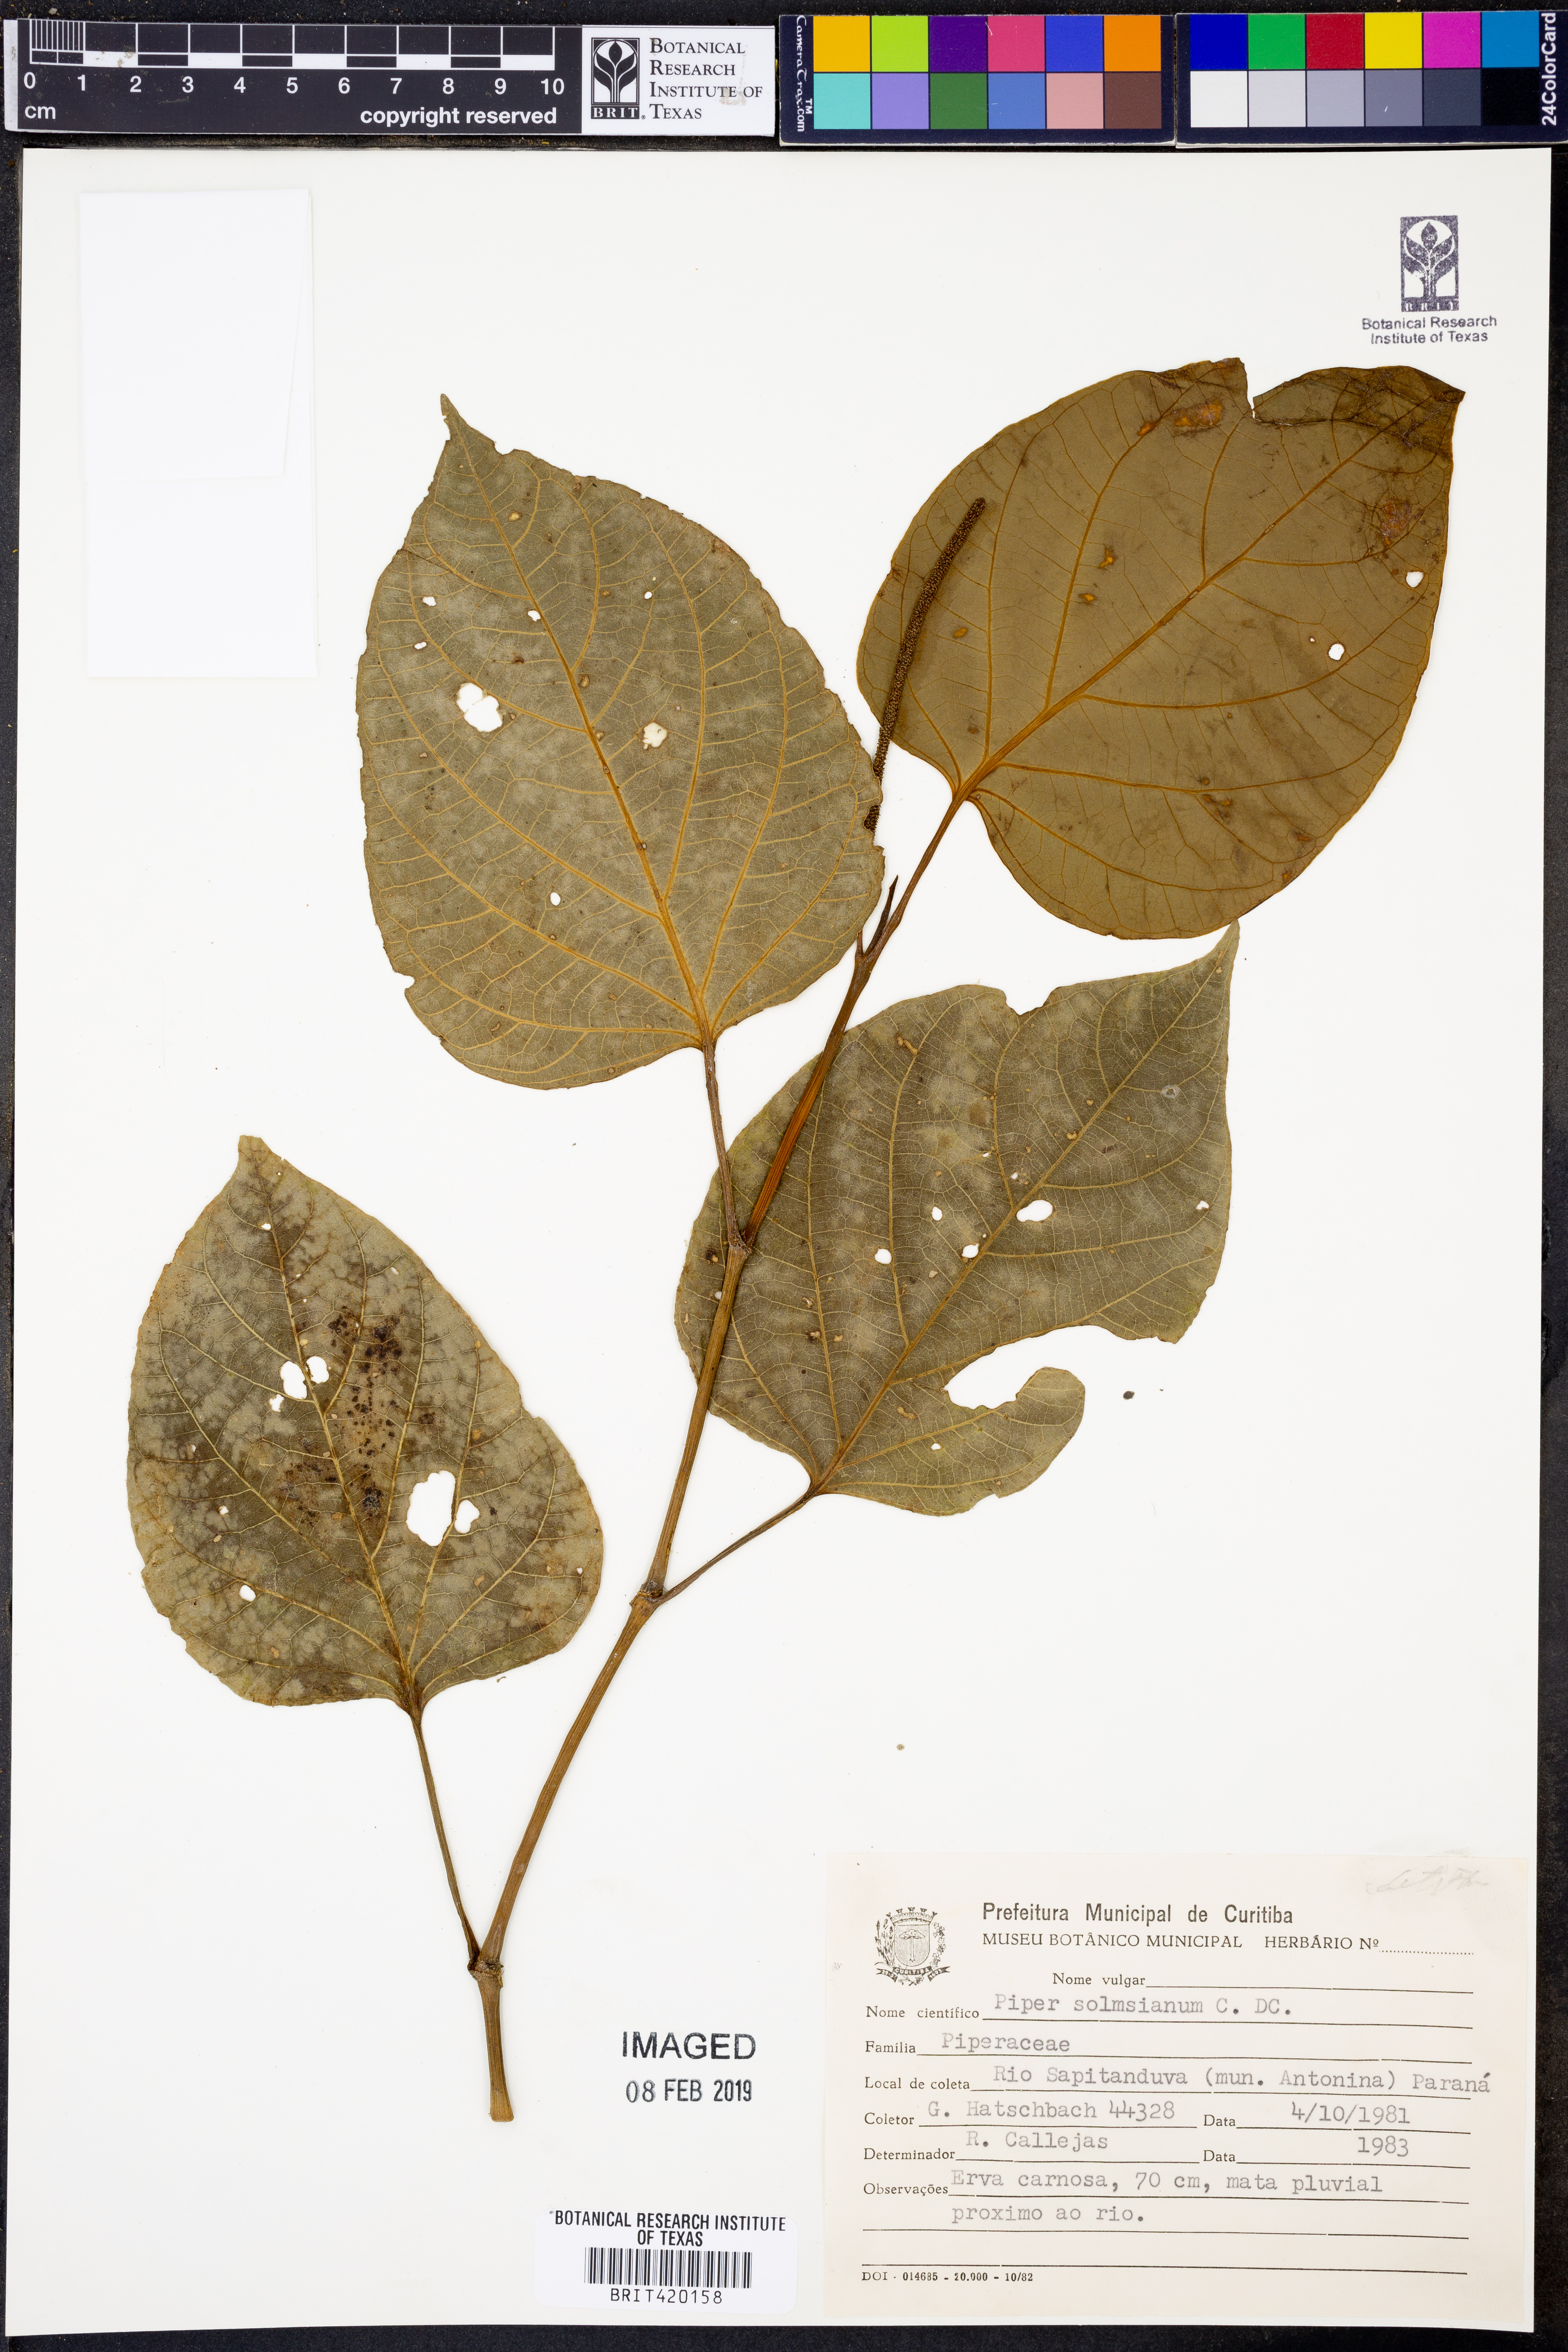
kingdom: Plantae
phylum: Tracheophyta
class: Magnoliopsida
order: Piperales
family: Piperaceae
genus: Piper
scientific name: Piper solmsianum
